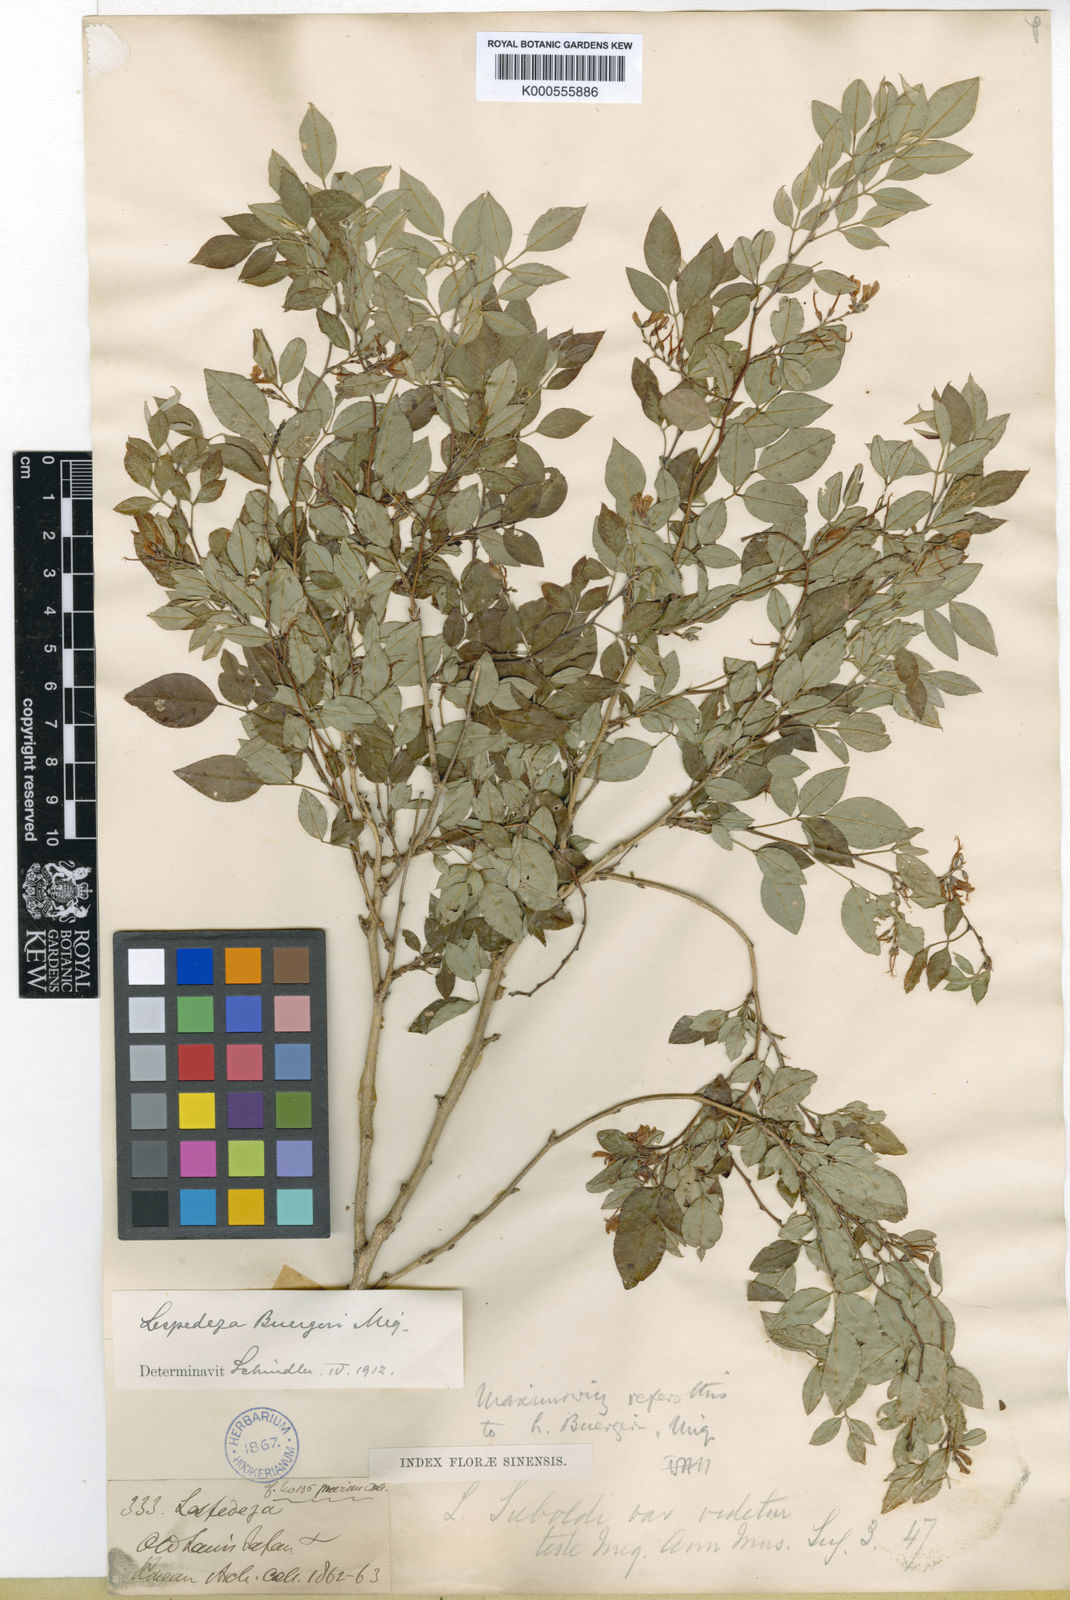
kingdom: Plantae
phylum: Tracheophyta
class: Magnoliopsida
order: Fabales
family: Fabaceae
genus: Lespedeza
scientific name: Lespedeza buergeri
